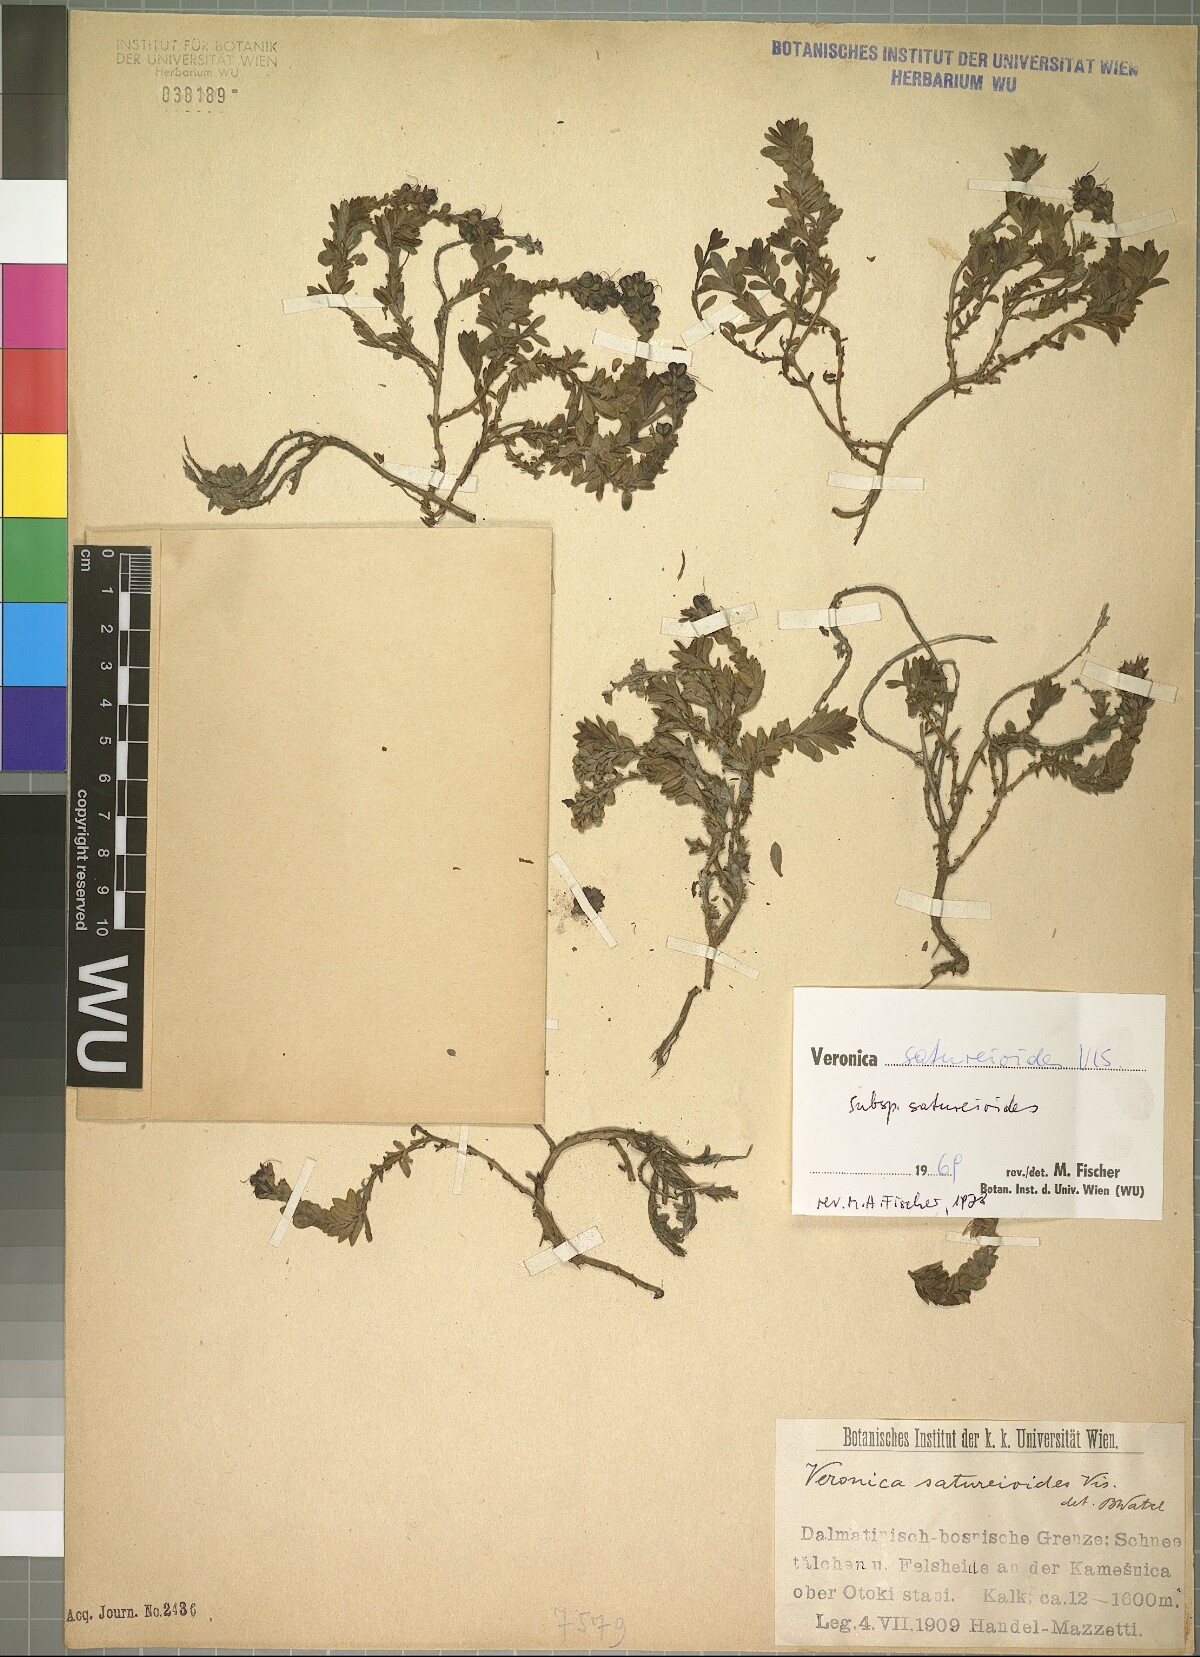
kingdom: Plantae
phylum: Tracheophyta
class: Magnoliopsida
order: Lamiales
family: Plantaginaceae
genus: Veronica
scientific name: Veronica saturejoides
